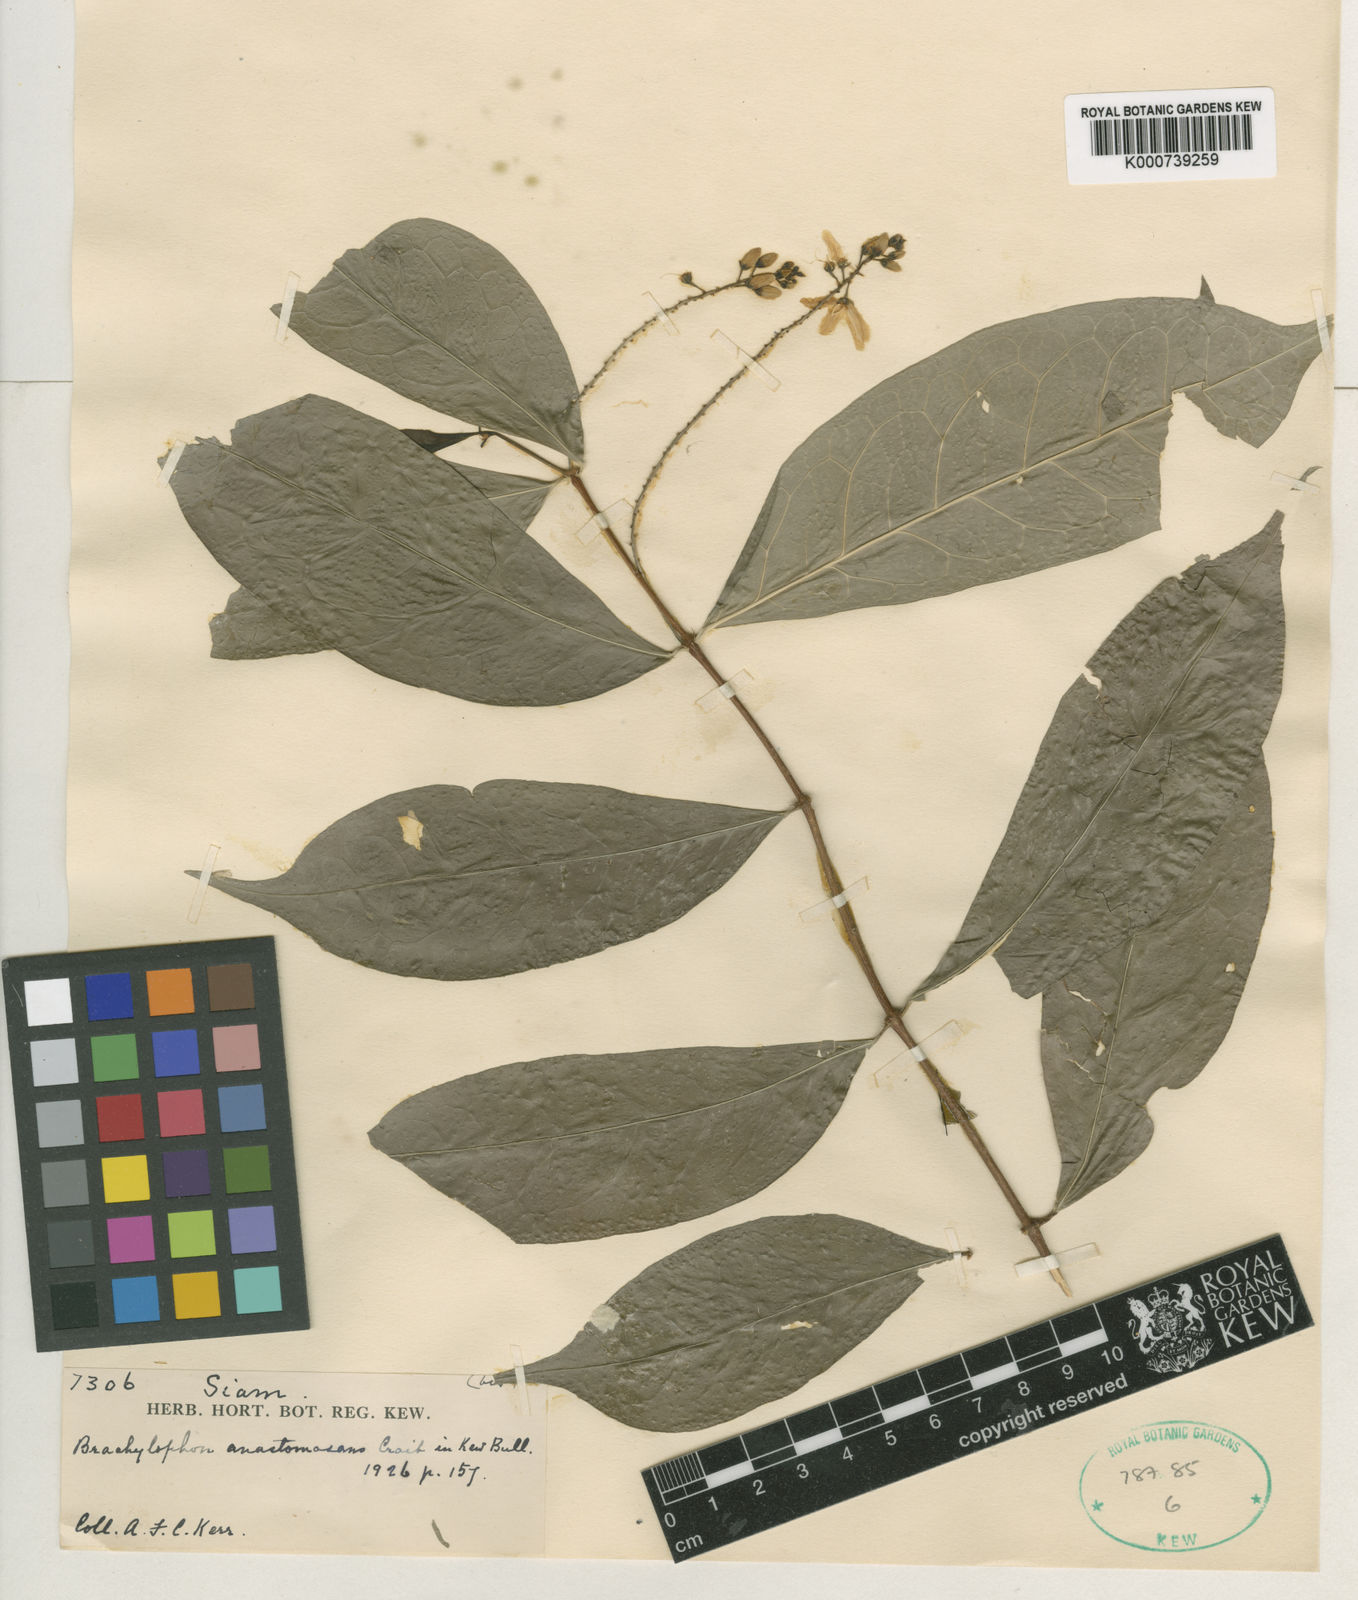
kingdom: Plantae
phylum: Tracheophyta
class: Magnoliopsida
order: Malpighiales
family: Malpighiaceae
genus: Brachylophon
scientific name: Brachylophon anastomosans
